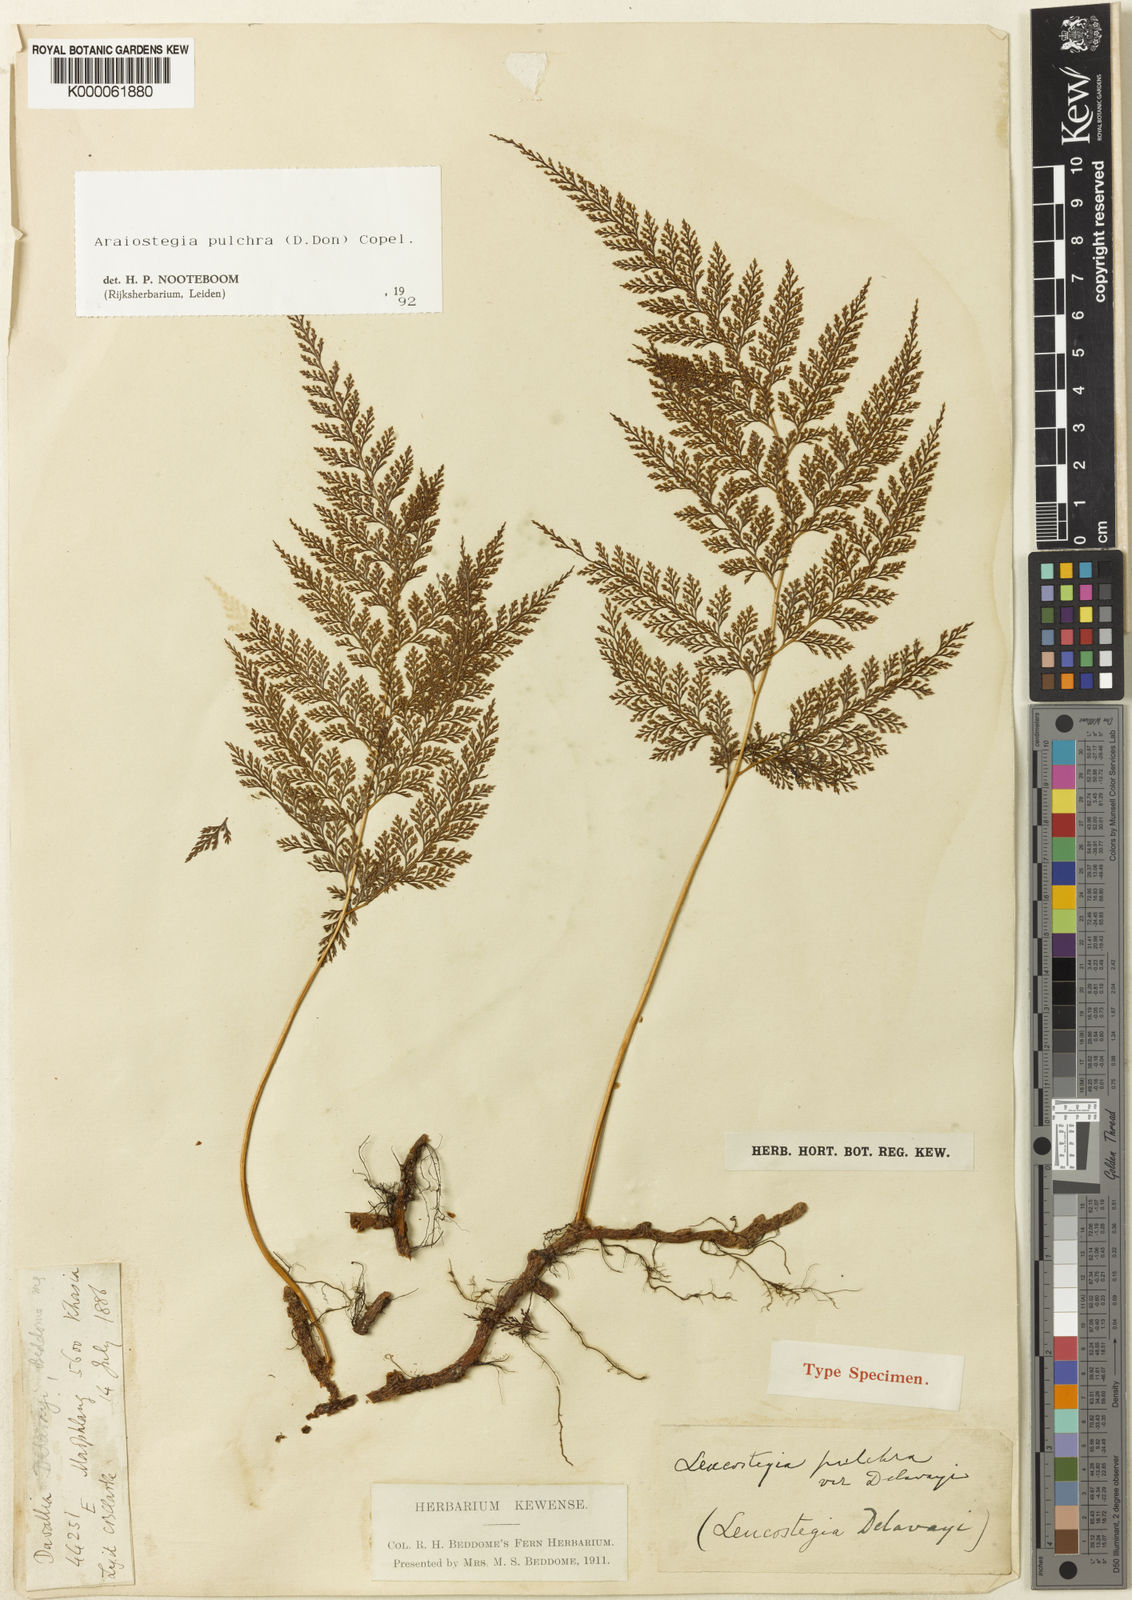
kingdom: Plantae
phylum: Tracheophyta
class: Polypodiopsida
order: Polypodiales
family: Davalliaceae
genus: Davallodes
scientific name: Davallodes pulchra
